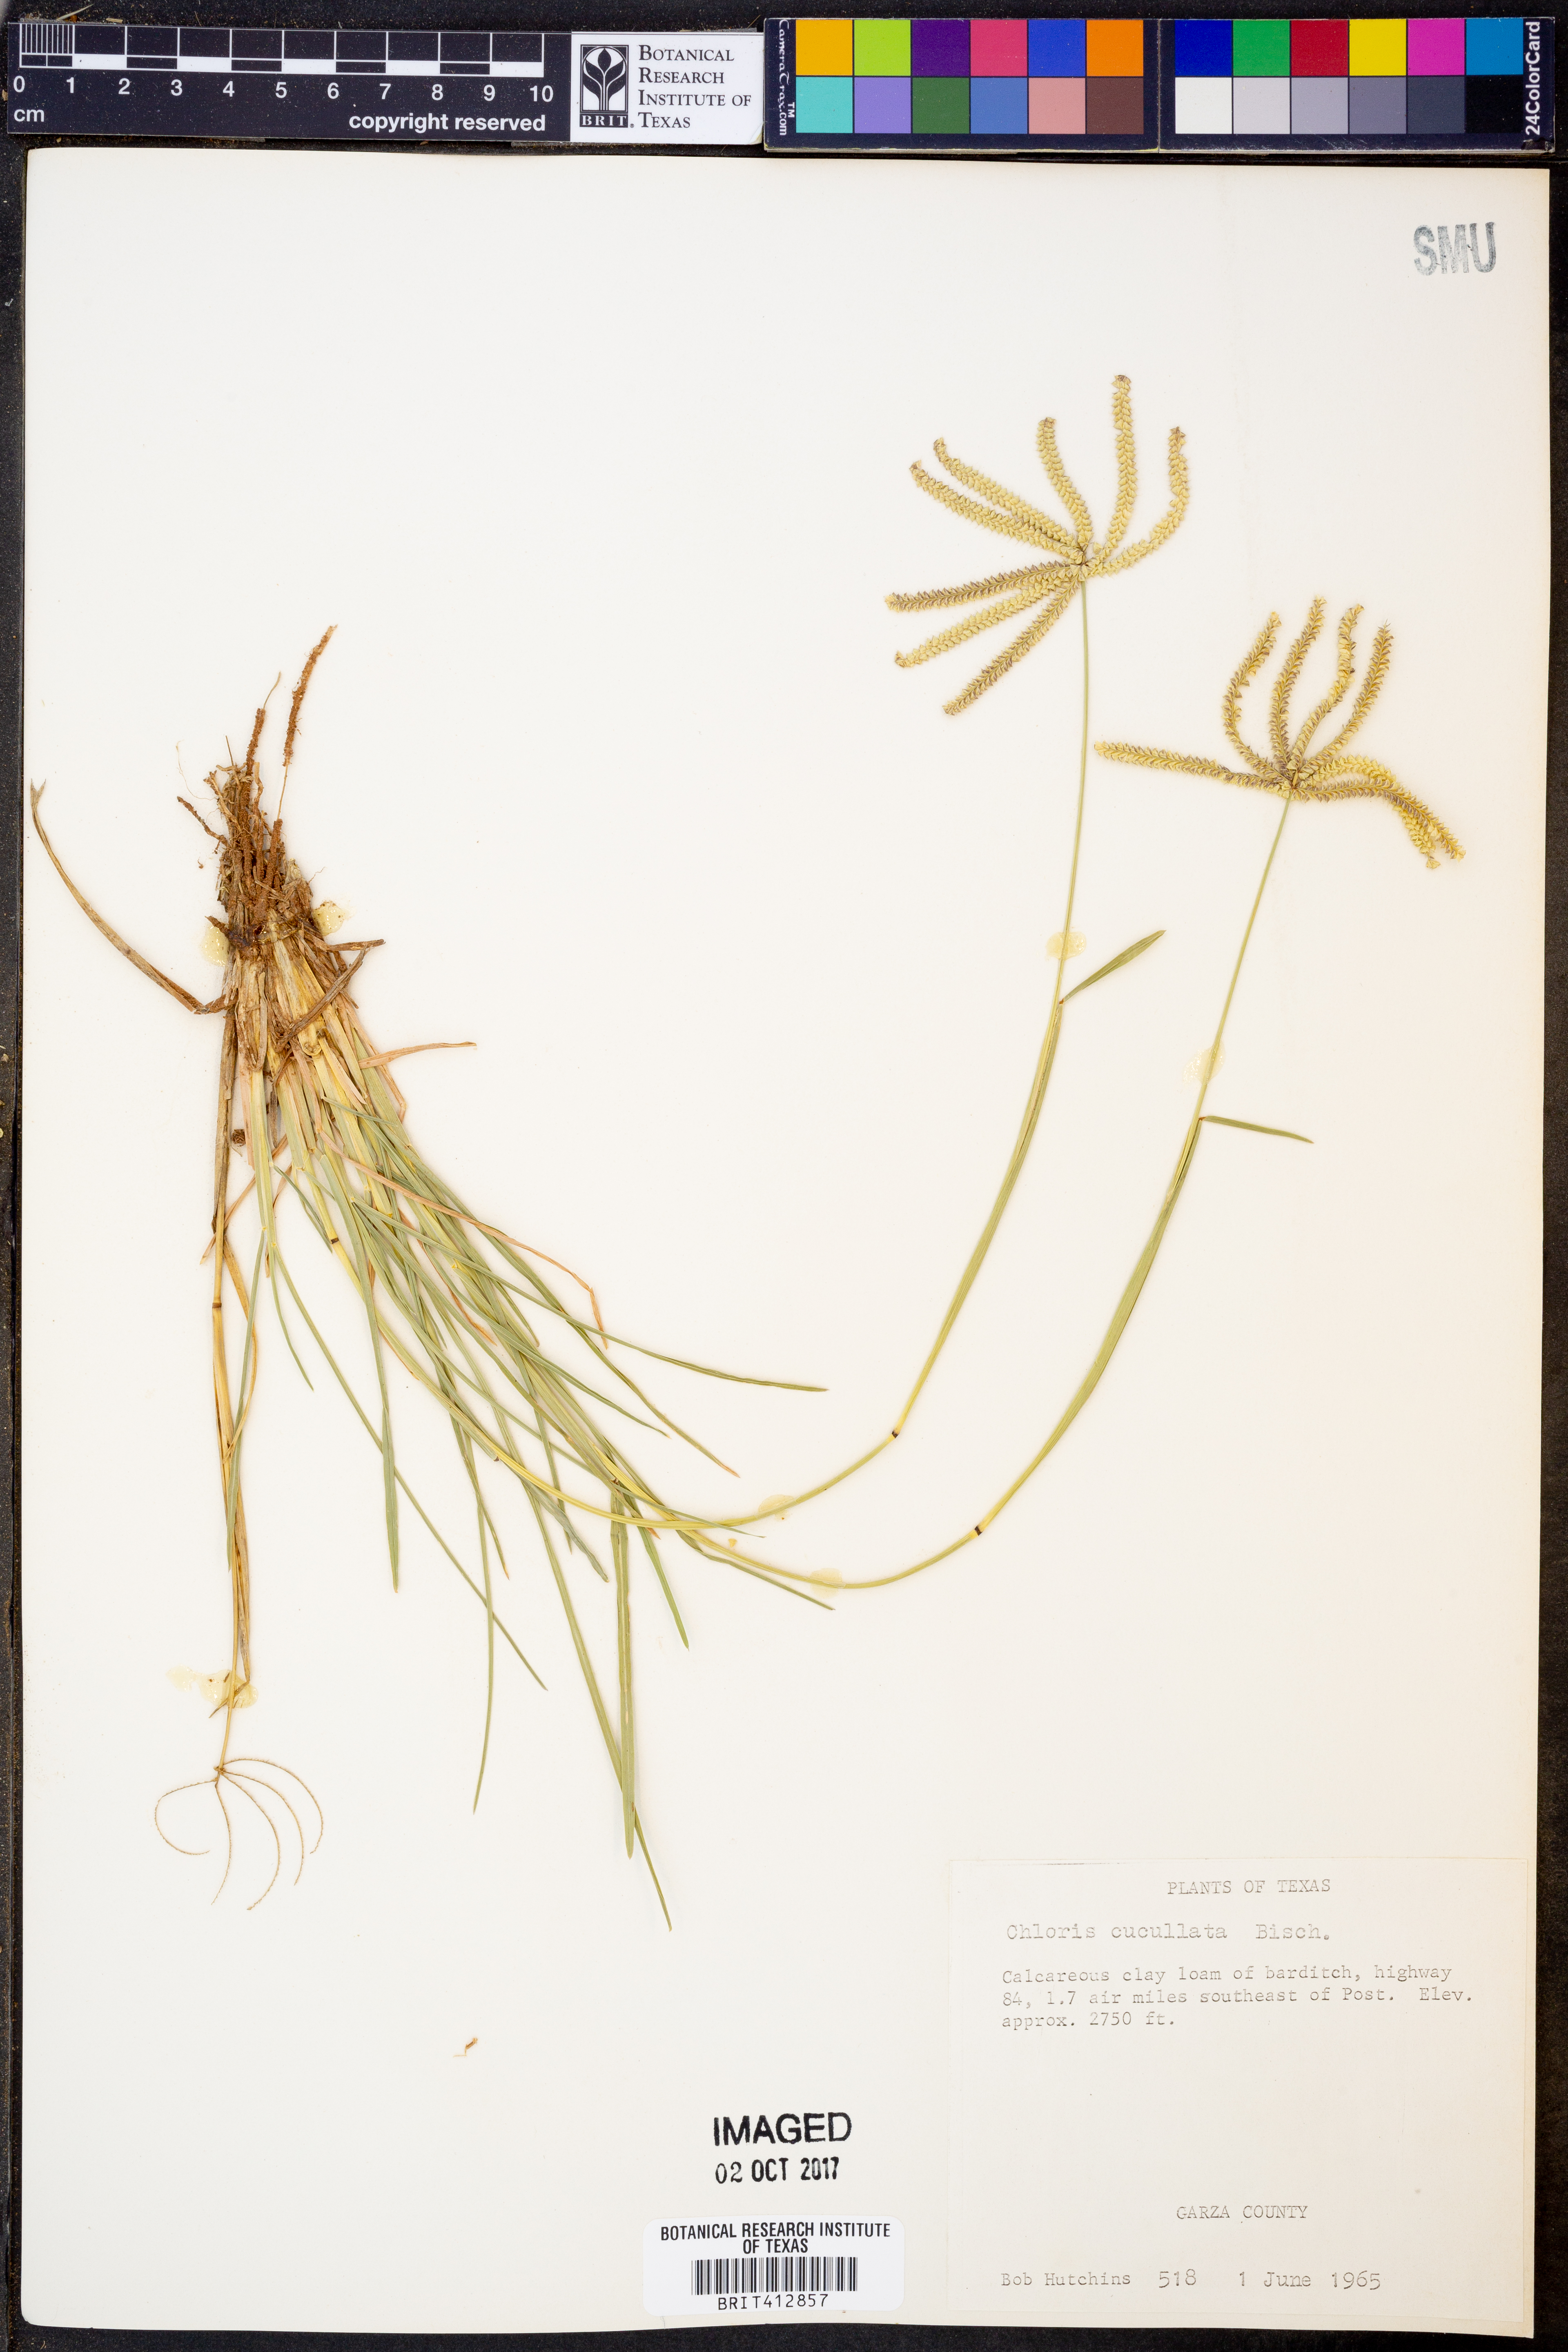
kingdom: Plantae
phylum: Tracheophyta
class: Liliopsida
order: Poales
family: Poaceae
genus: Chloris
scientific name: Chloris cucullata
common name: Hooded windmill grass
